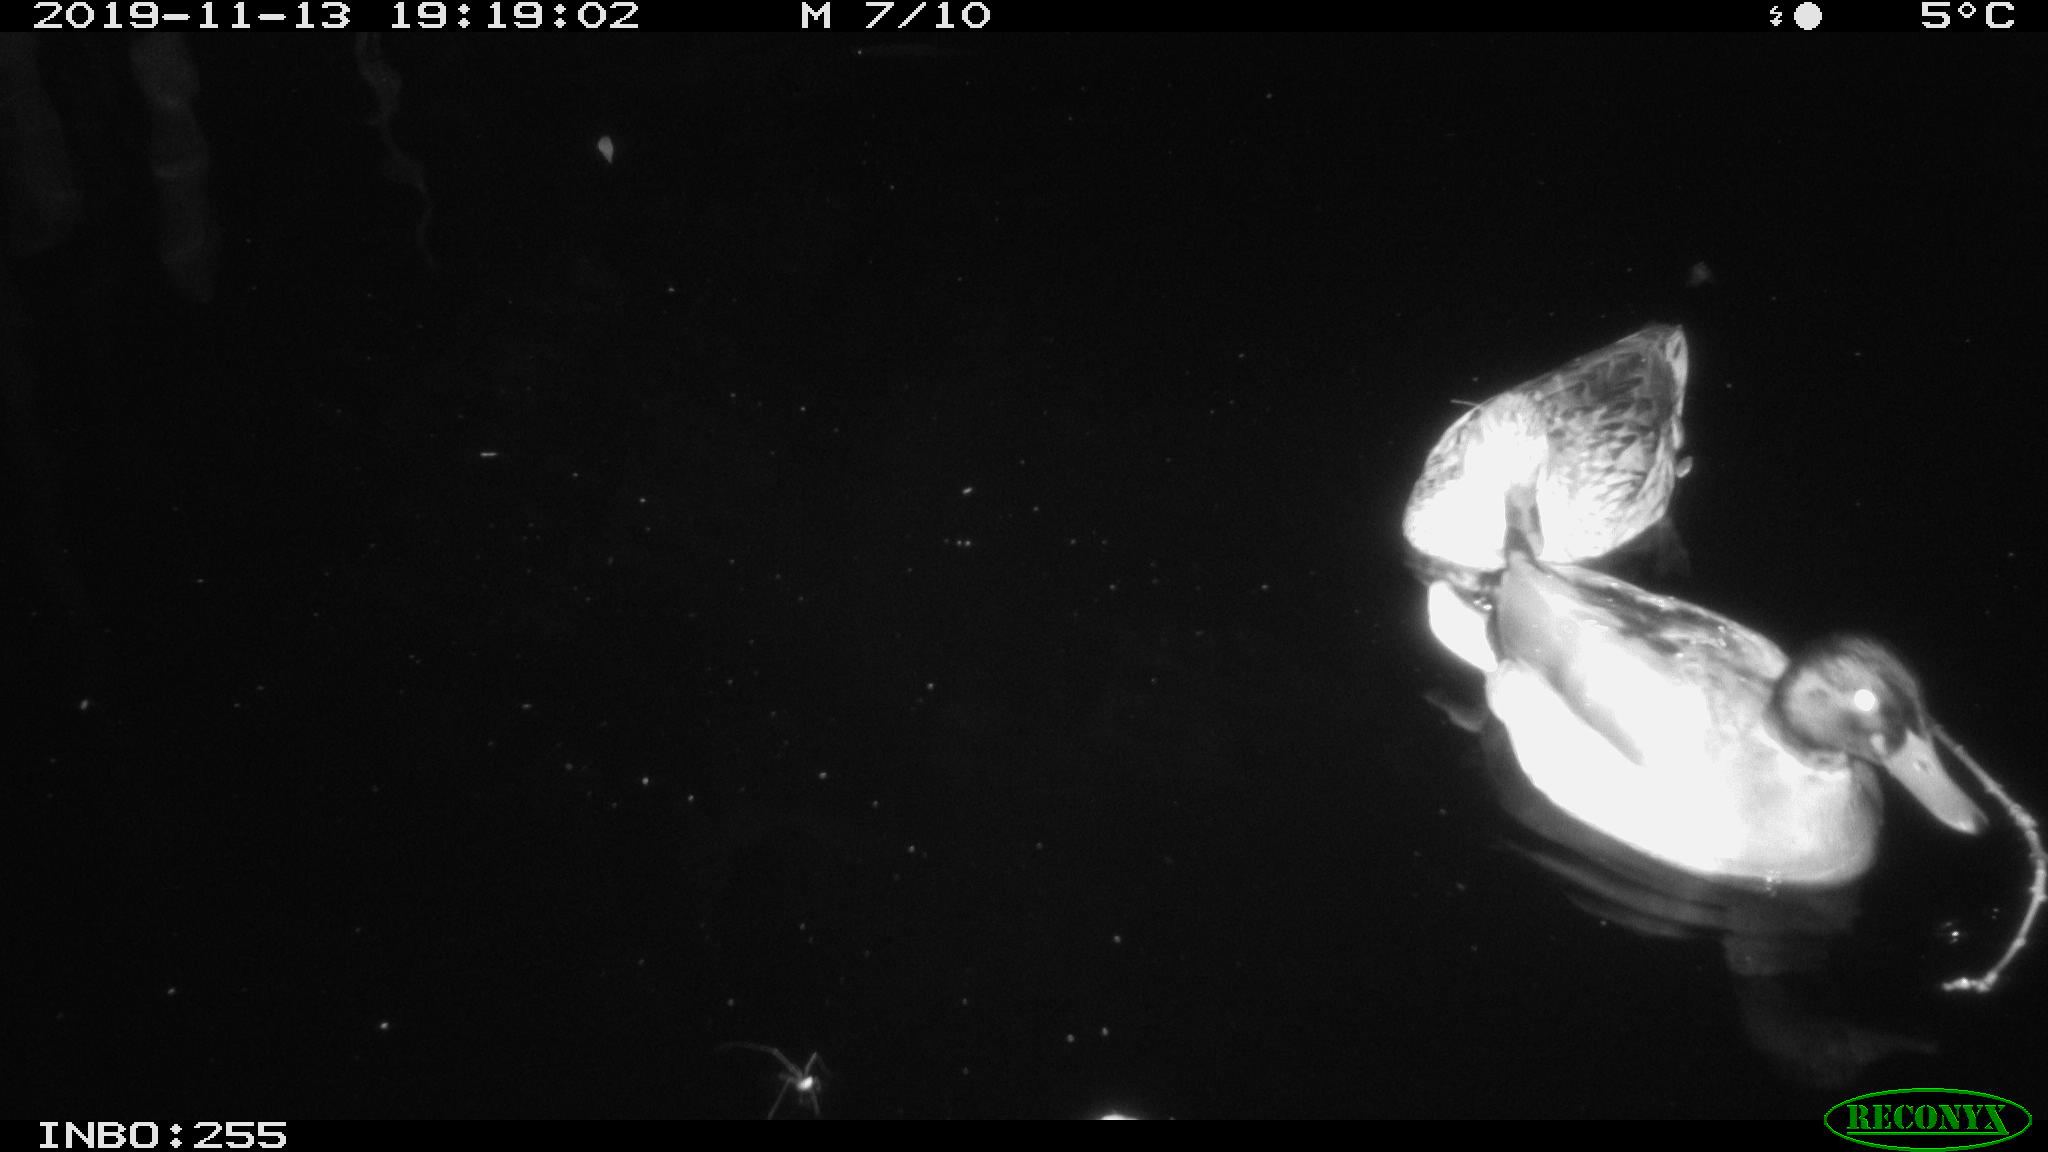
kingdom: Animalia
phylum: Chordata
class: Aves
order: Anseriformes
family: Anatidae
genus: Anas
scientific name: Anas platyrhynchos
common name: Mallard
